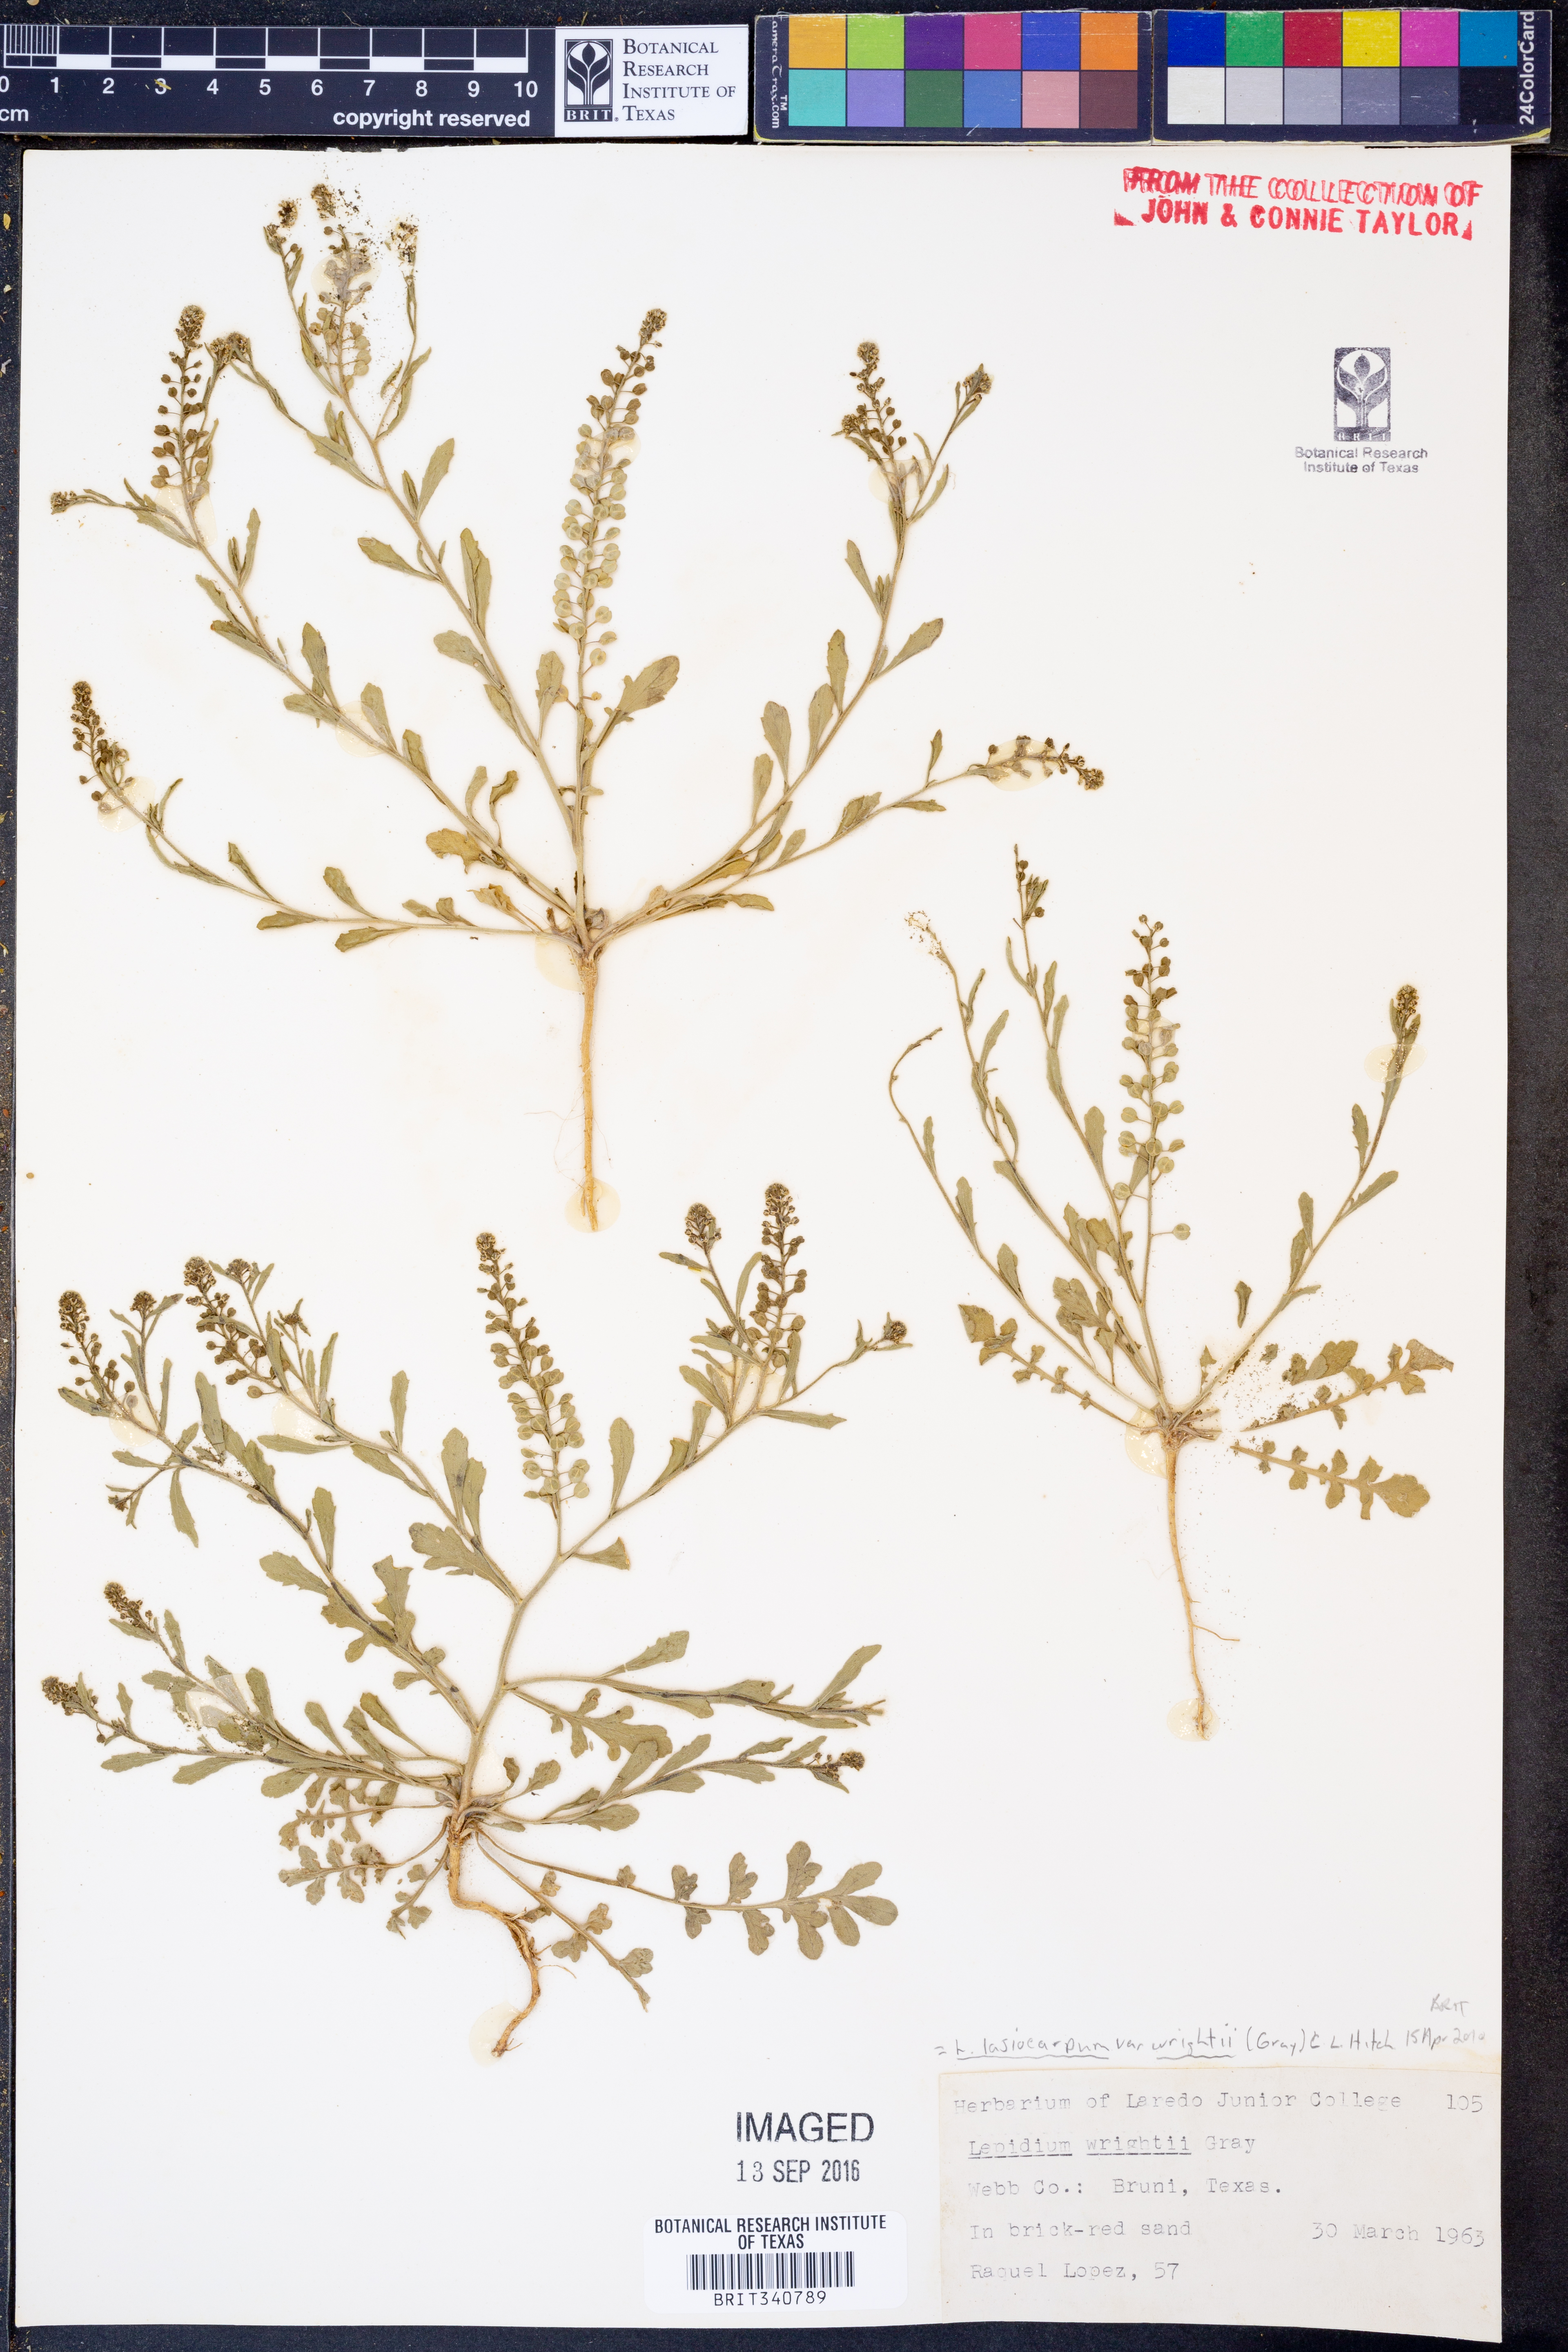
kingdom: Plantae
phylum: Tracheophyta
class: Magnoliopsida
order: Brassicales
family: Brassicaceae
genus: Lepidium
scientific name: Lepidium lasiocarpum
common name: Hairy-pod pepperwort
